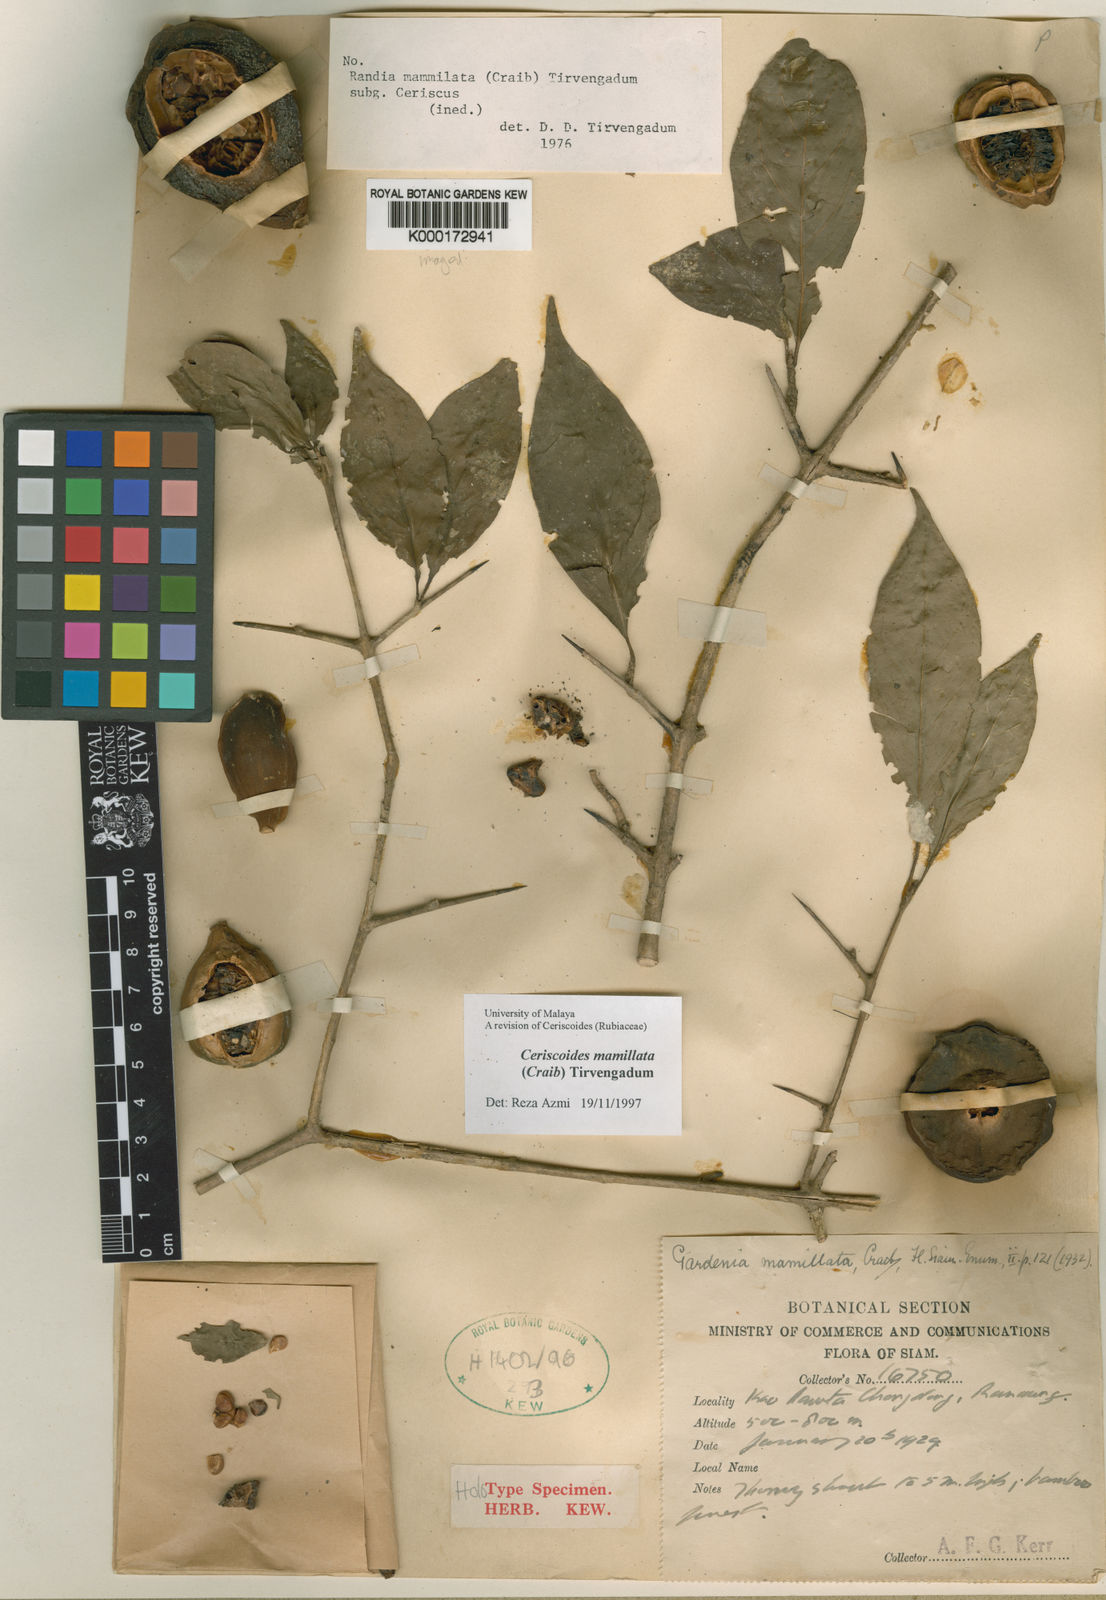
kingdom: Plantae
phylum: Tracheophyta
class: Magnoliopsida
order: Gentianales
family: Rubiaceae
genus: Ceriscoides
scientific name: Ceriscoides mamillata
